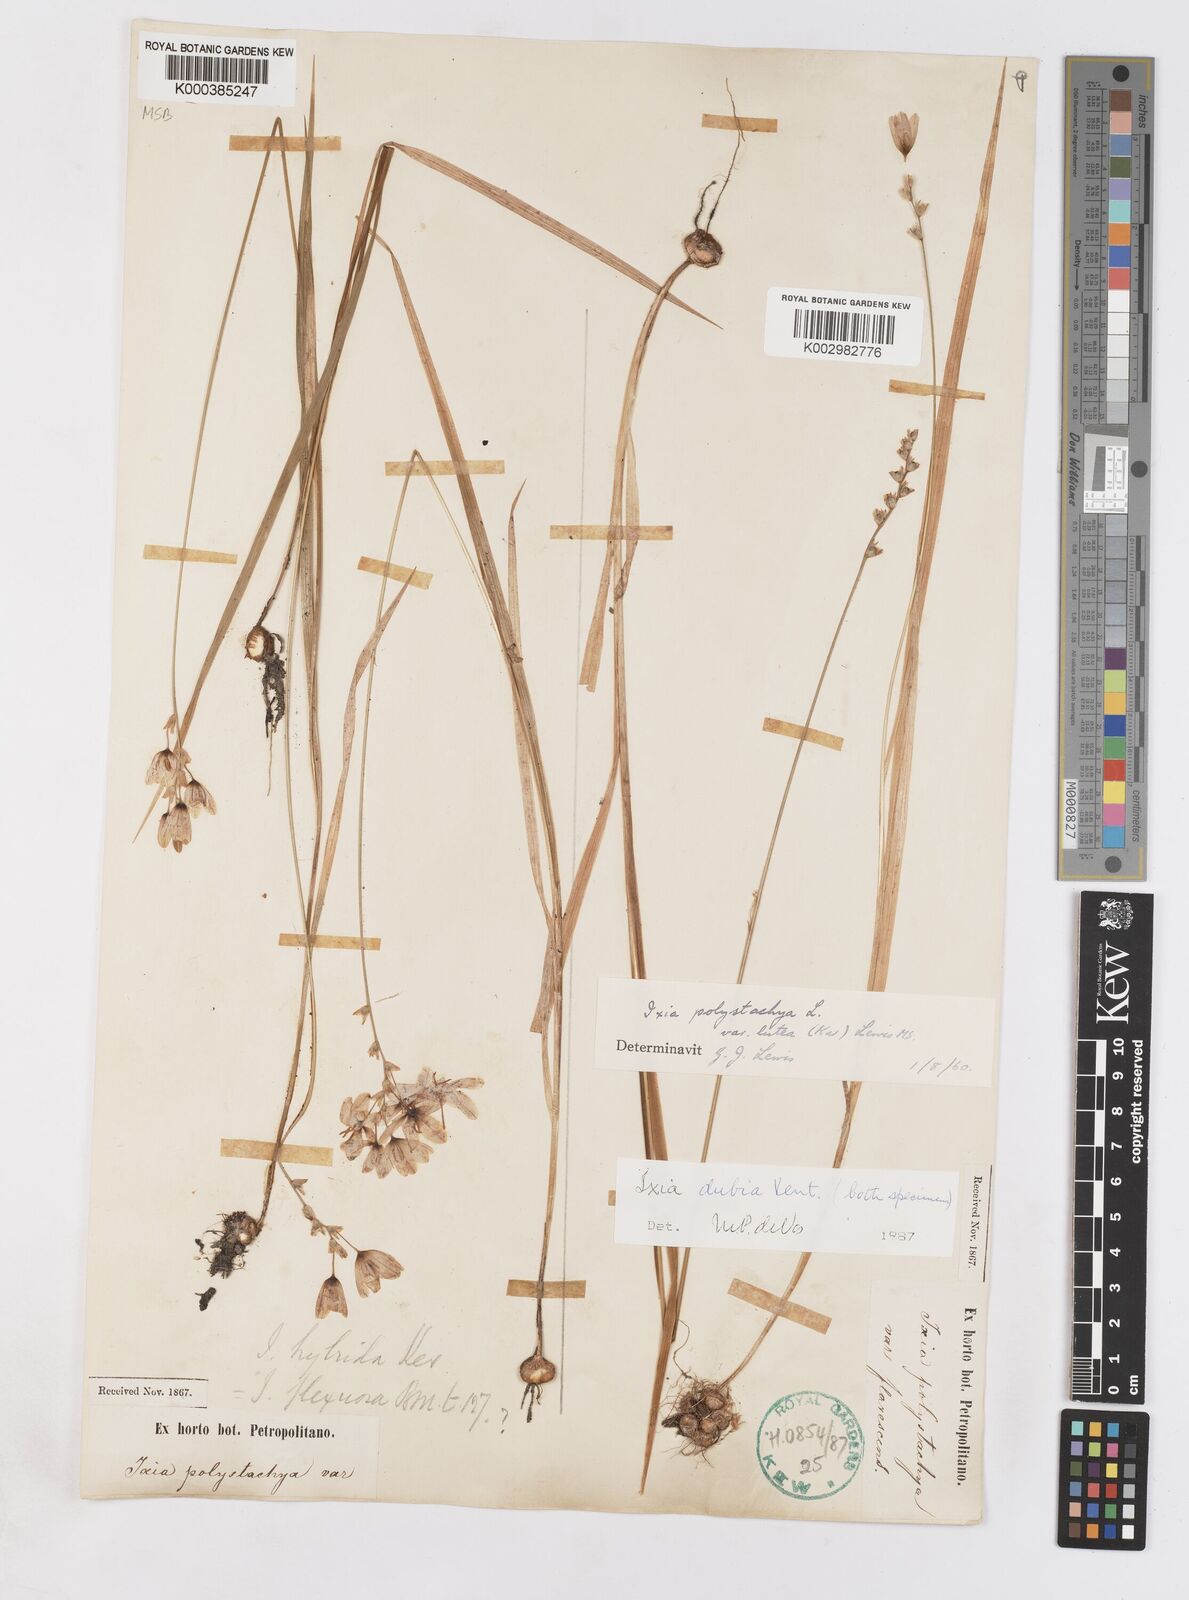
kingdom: Plantae
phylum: Tracheophyta
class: Liliopsida
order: Asparagales
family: Iridaceae
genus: Ixia
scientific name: Ixia dubia
